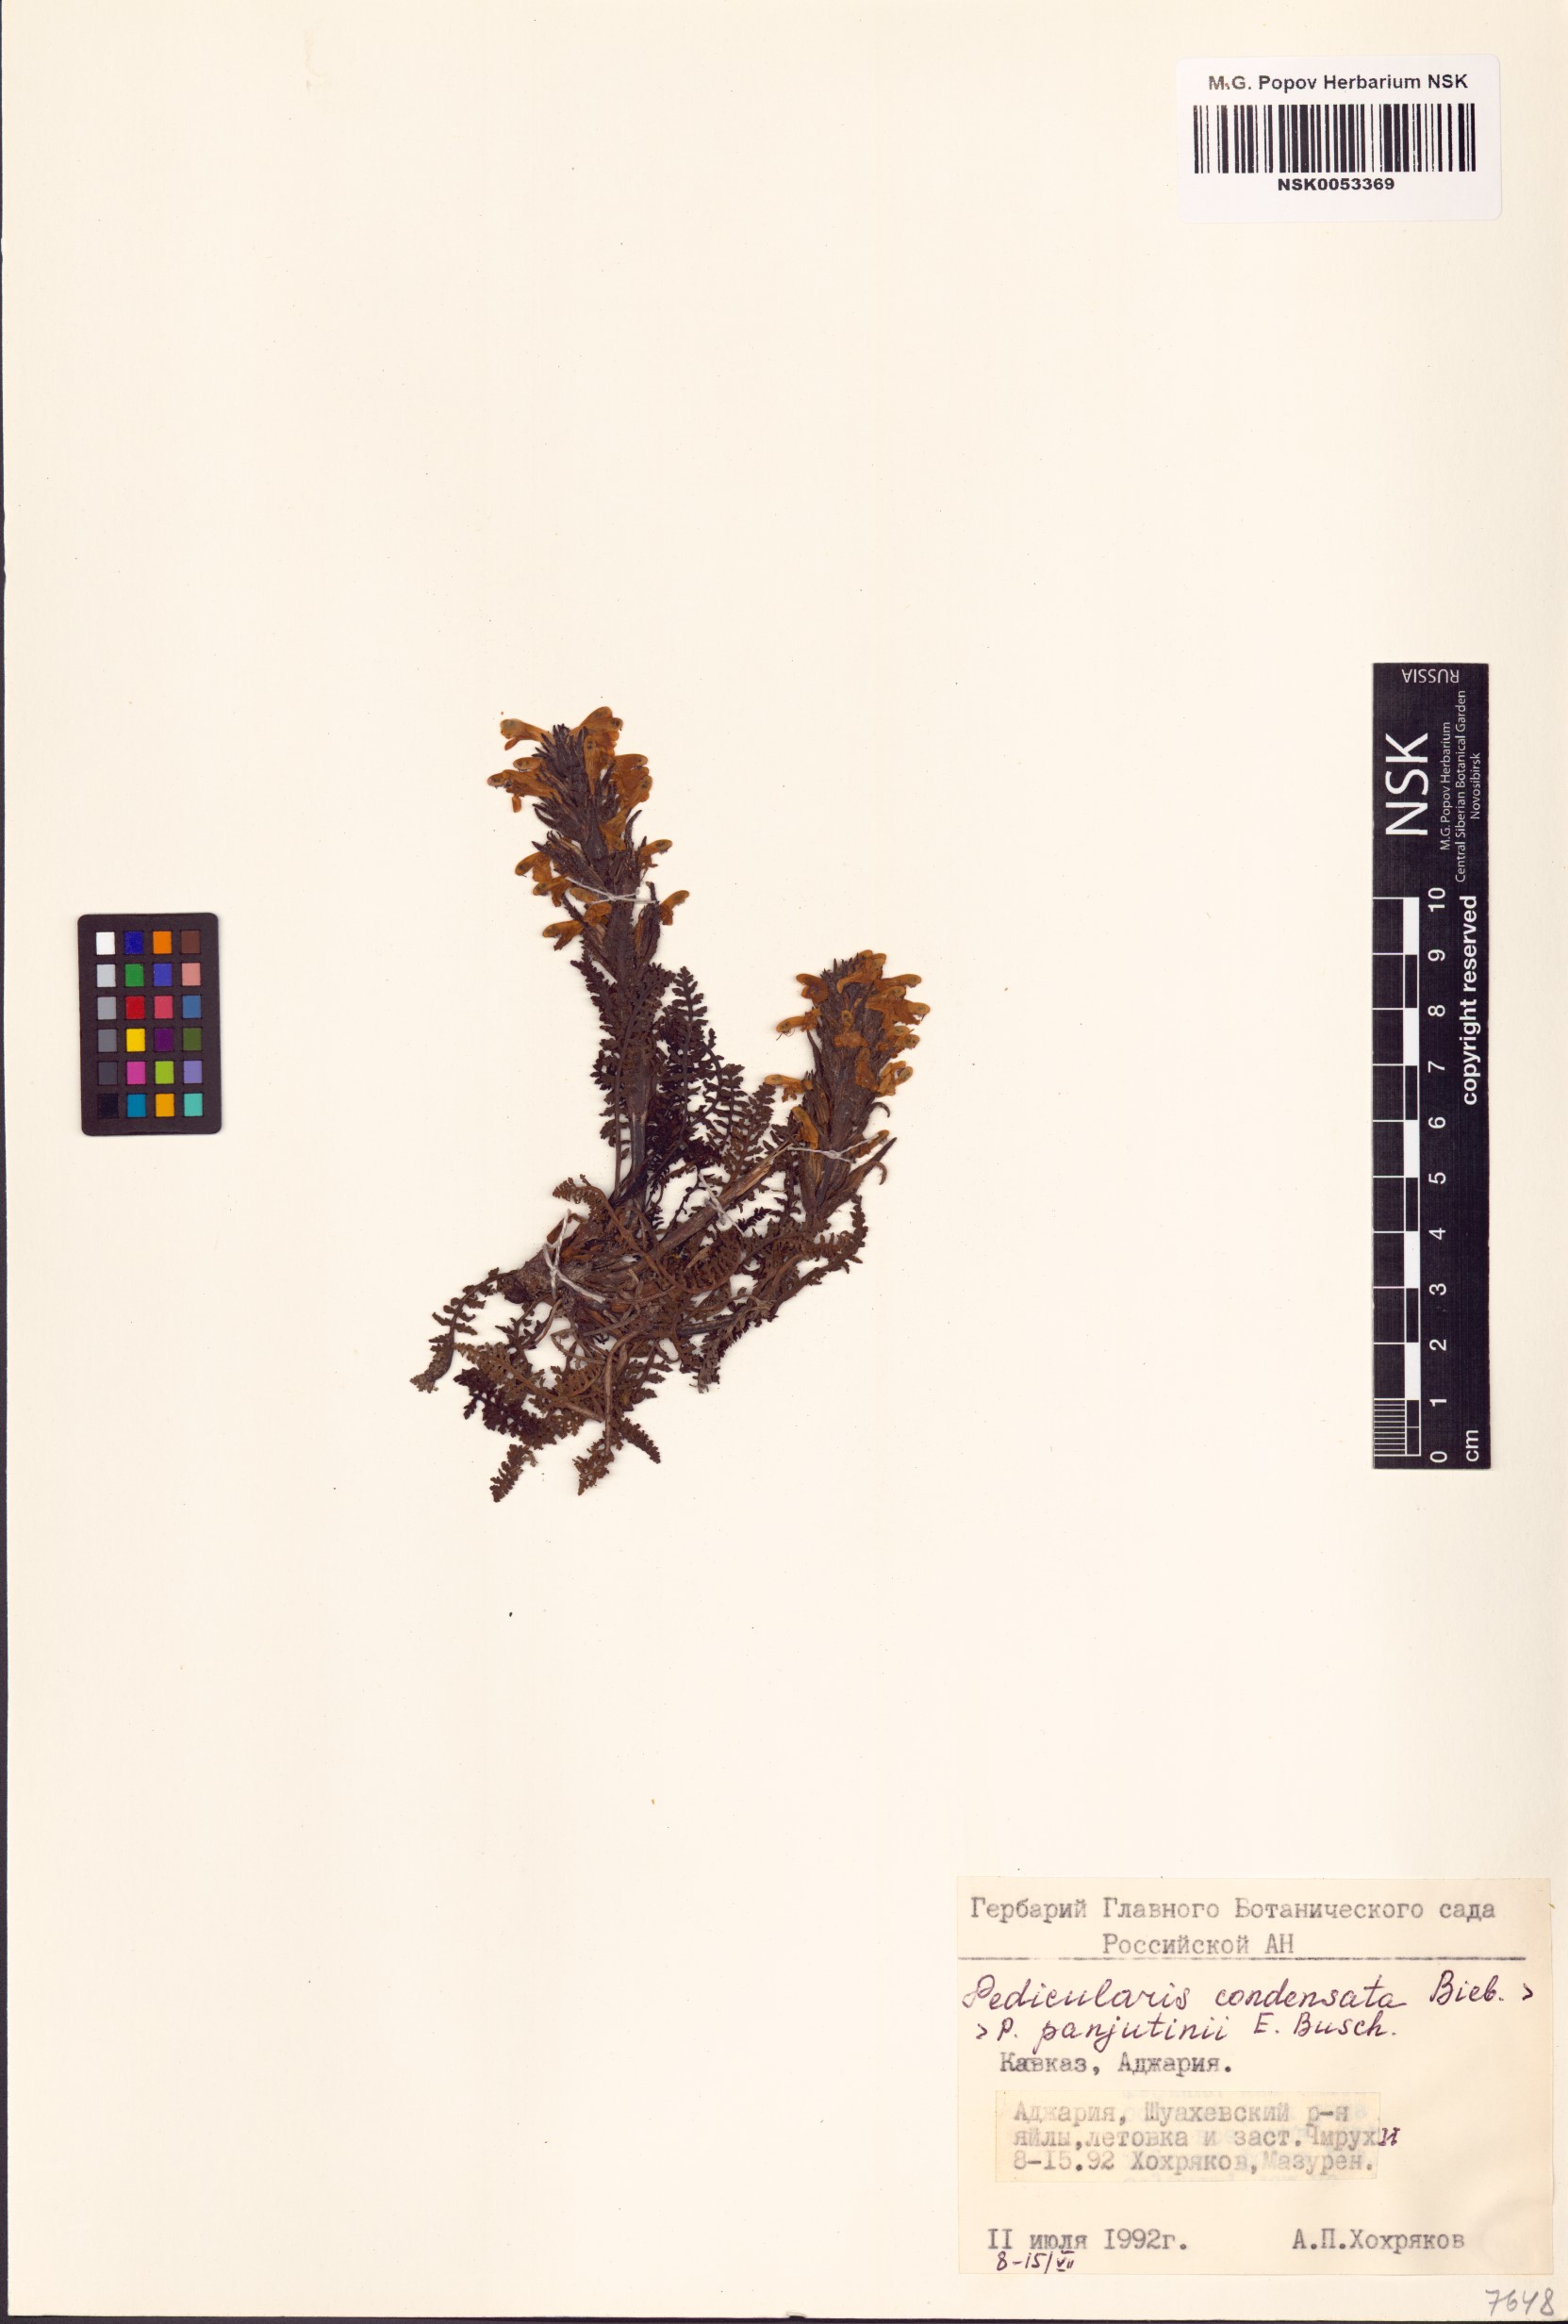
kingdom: Plantae
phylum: Tracheophyta
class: Magnoliopsida
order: Lamiales
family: Orobanchaceae
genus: Pedicularis
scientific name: Pedicularis condensata
